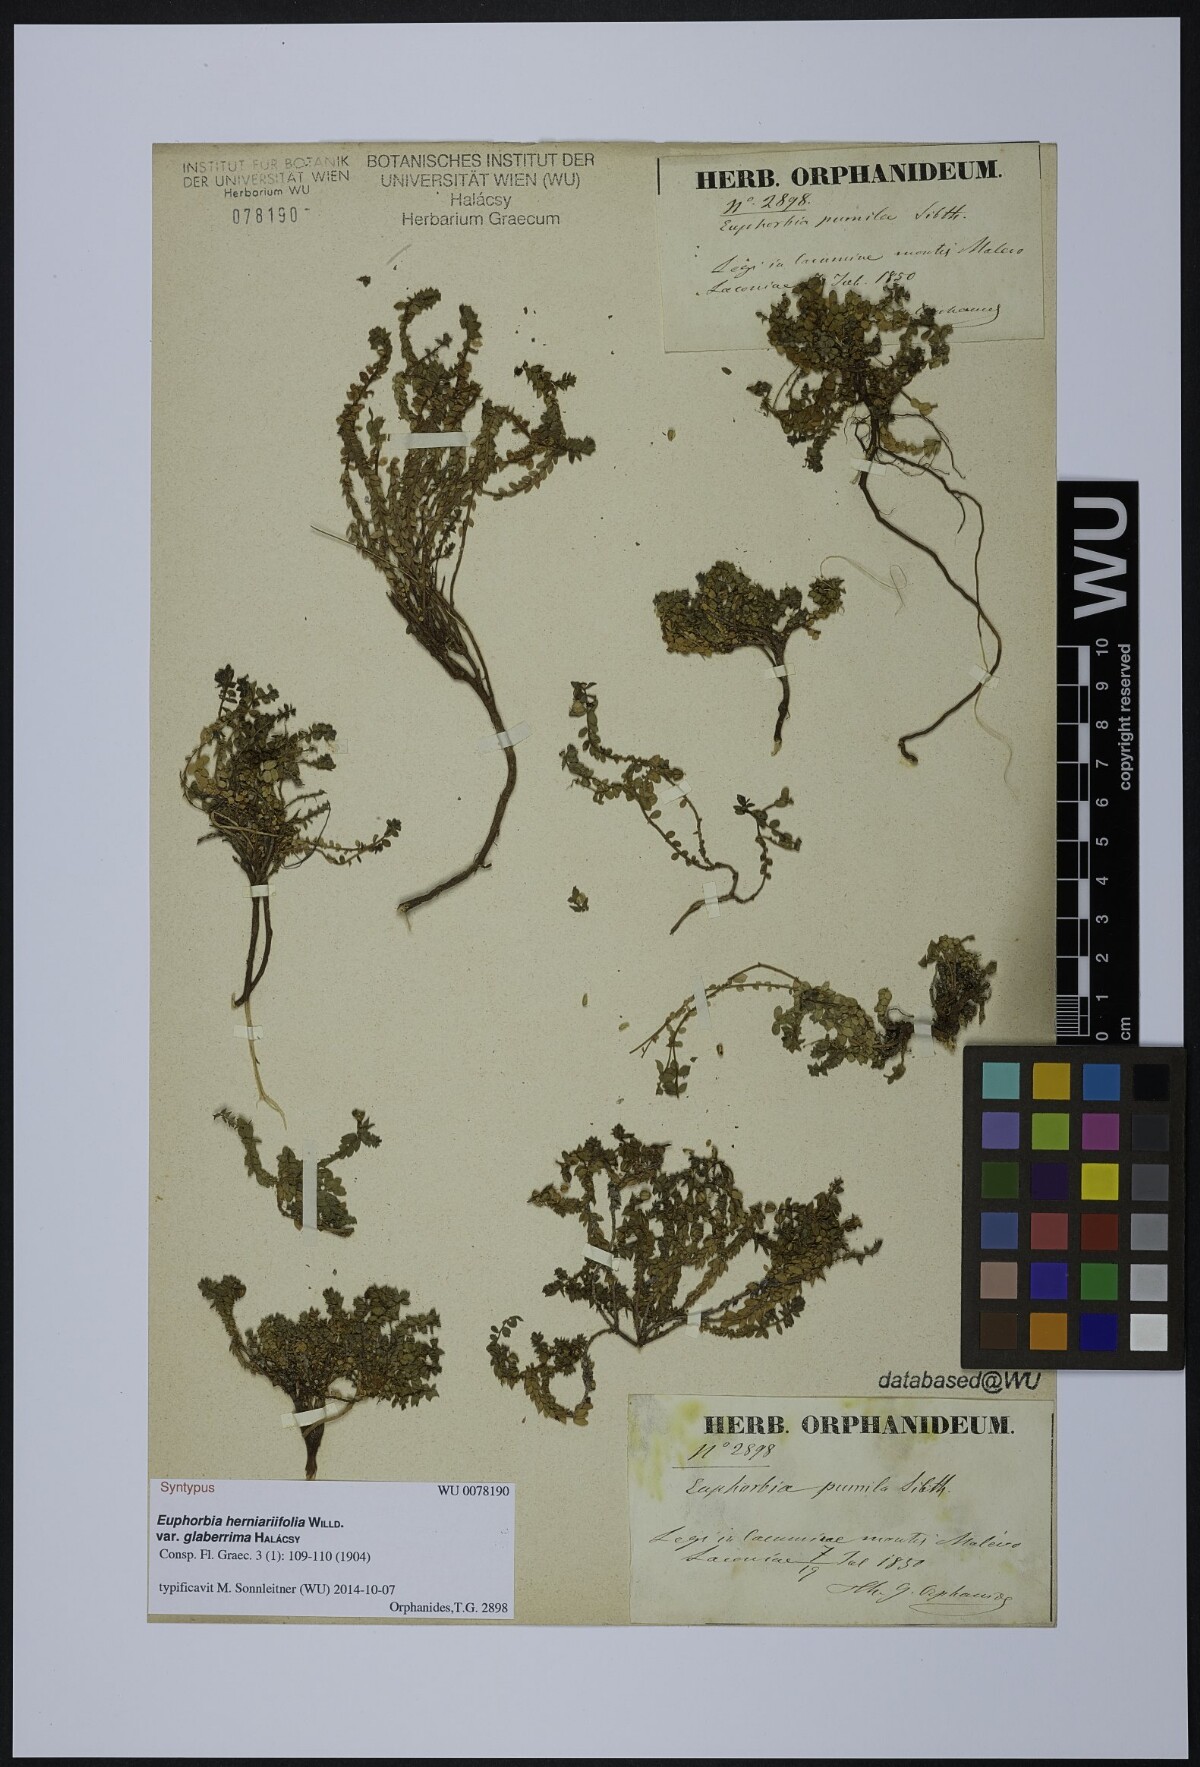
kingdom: Plantae
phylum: Tracheophyta
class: Magnoliopsida
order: Malpighiales
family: Euphorbiaceae
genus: Euphorbia
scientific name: Euphorbia herniariifolia
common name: Herniaria-leaf spurge
